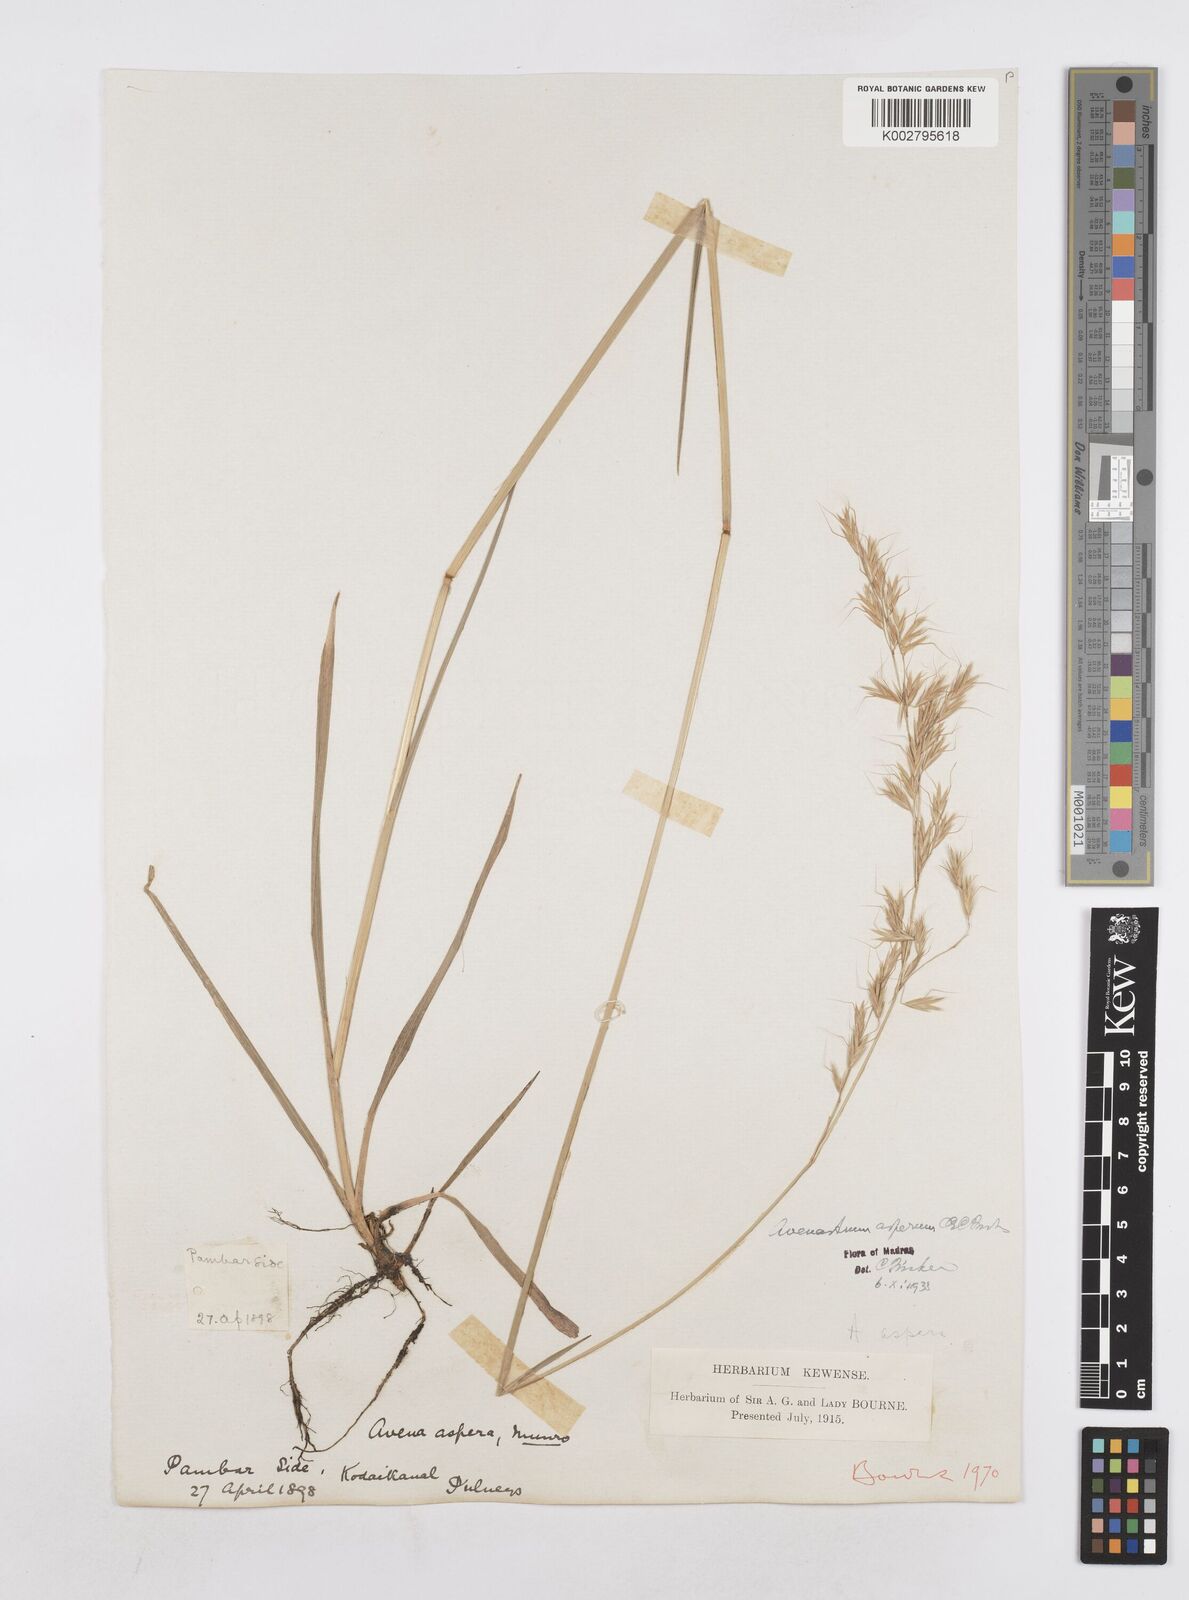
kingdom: Plantae
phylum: Tracheophyta
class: Liliopsida
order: Poales
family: Poaceae
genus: Helictotrichon
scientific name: Helictotrichon
